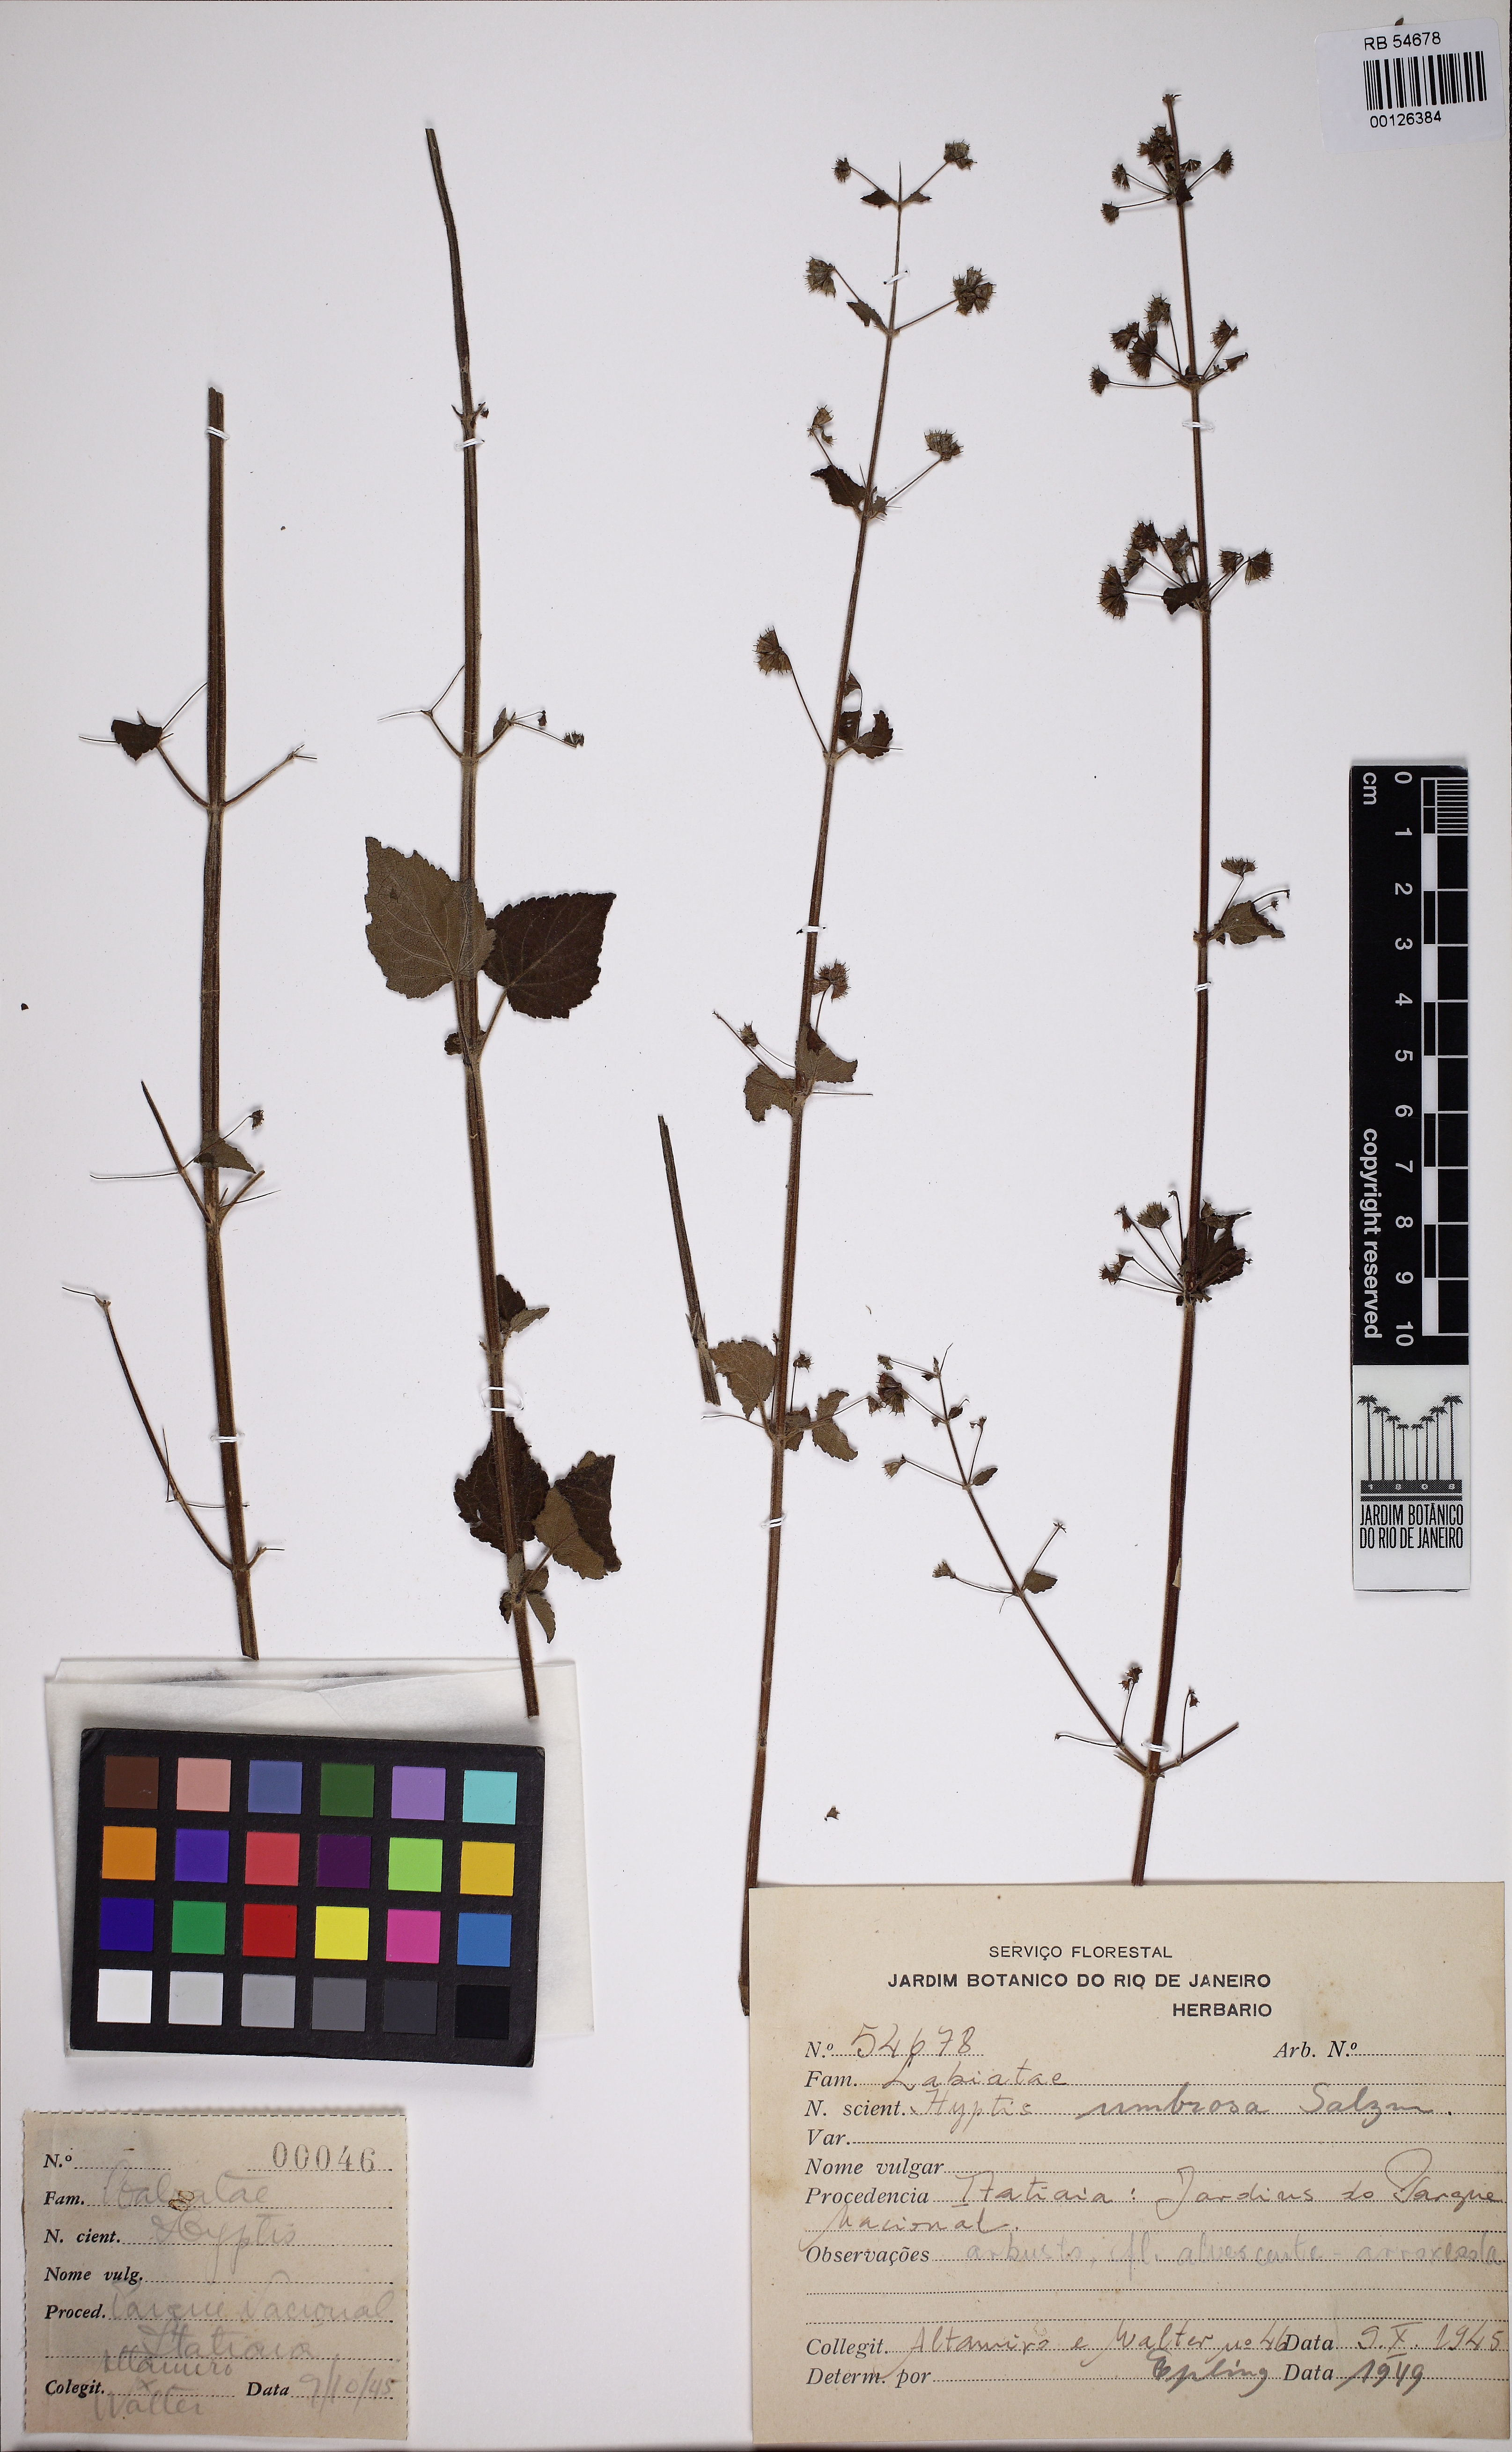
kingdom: Plantae
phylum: Tracheophyta
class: Magnoliopsida
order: Lamiales
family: Lamiaceae
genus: Mesosphaerum
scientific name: Mesosphaerum sidifolium
